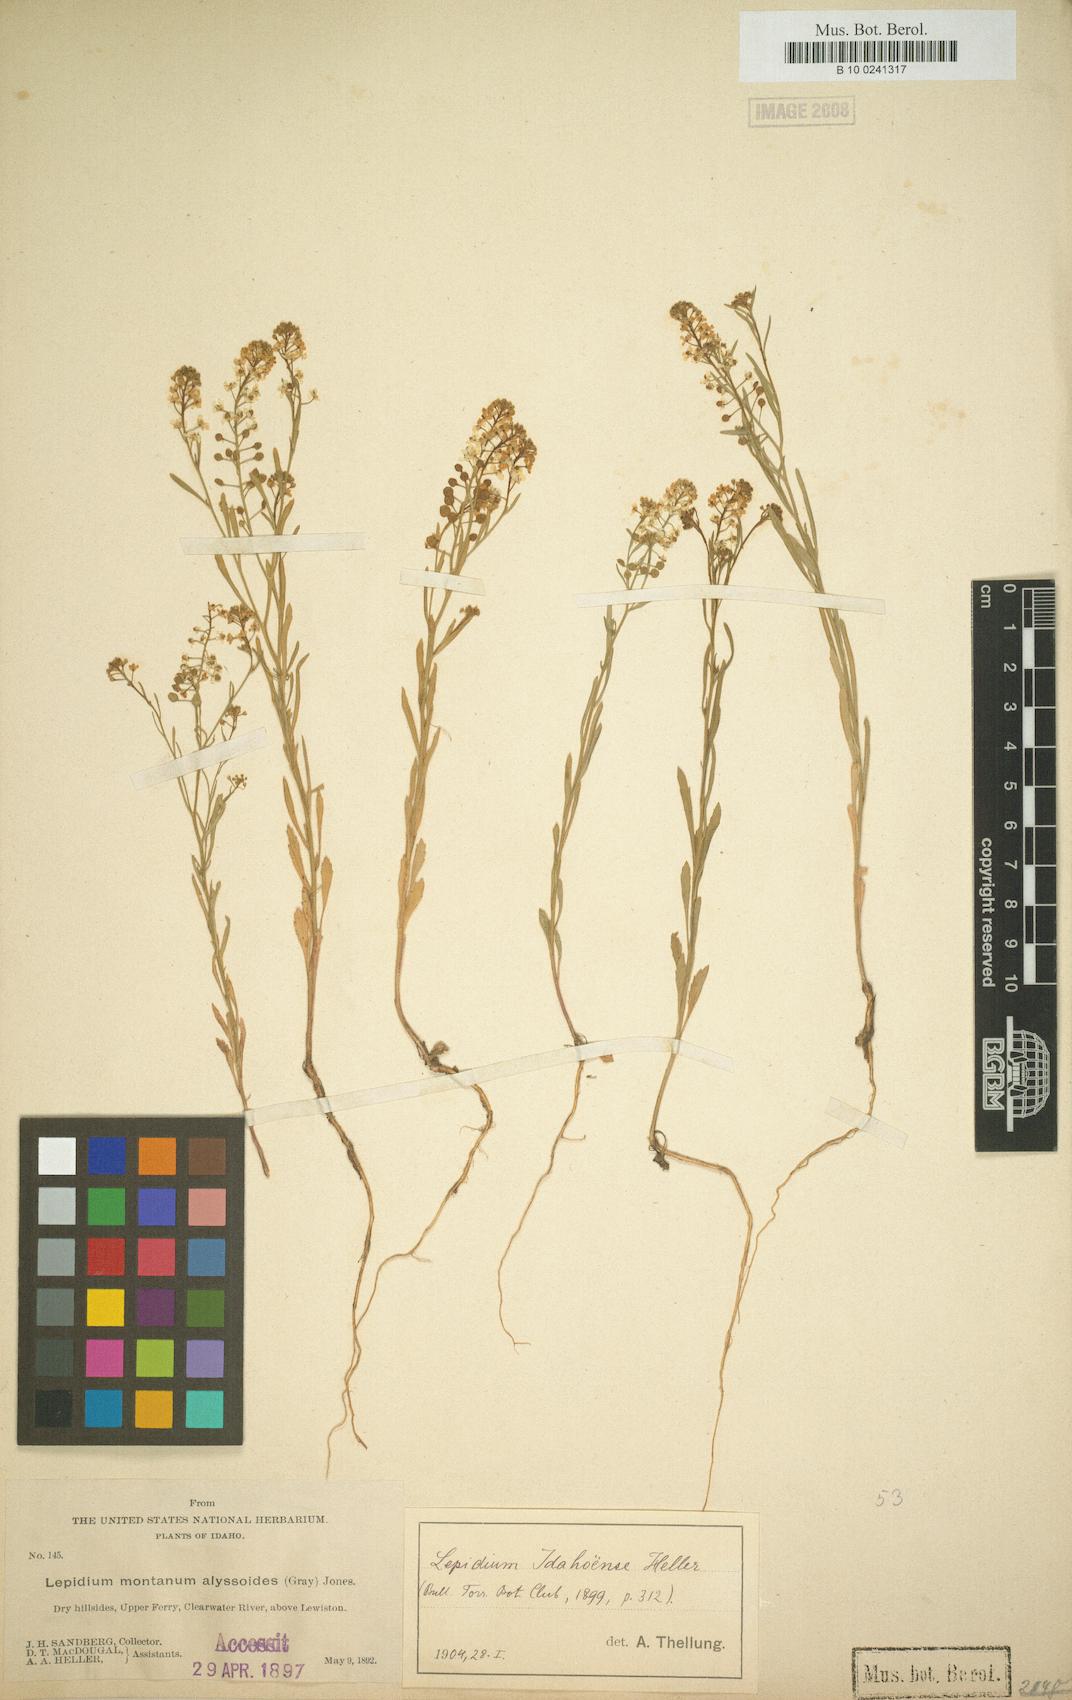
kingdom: Plantae
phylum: Tracheophyta
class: Magnoliopsida
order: Brassicales
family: Brassicaceae
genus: Lepidium
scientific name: Lepidium virginicum
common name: Least pepperwort
